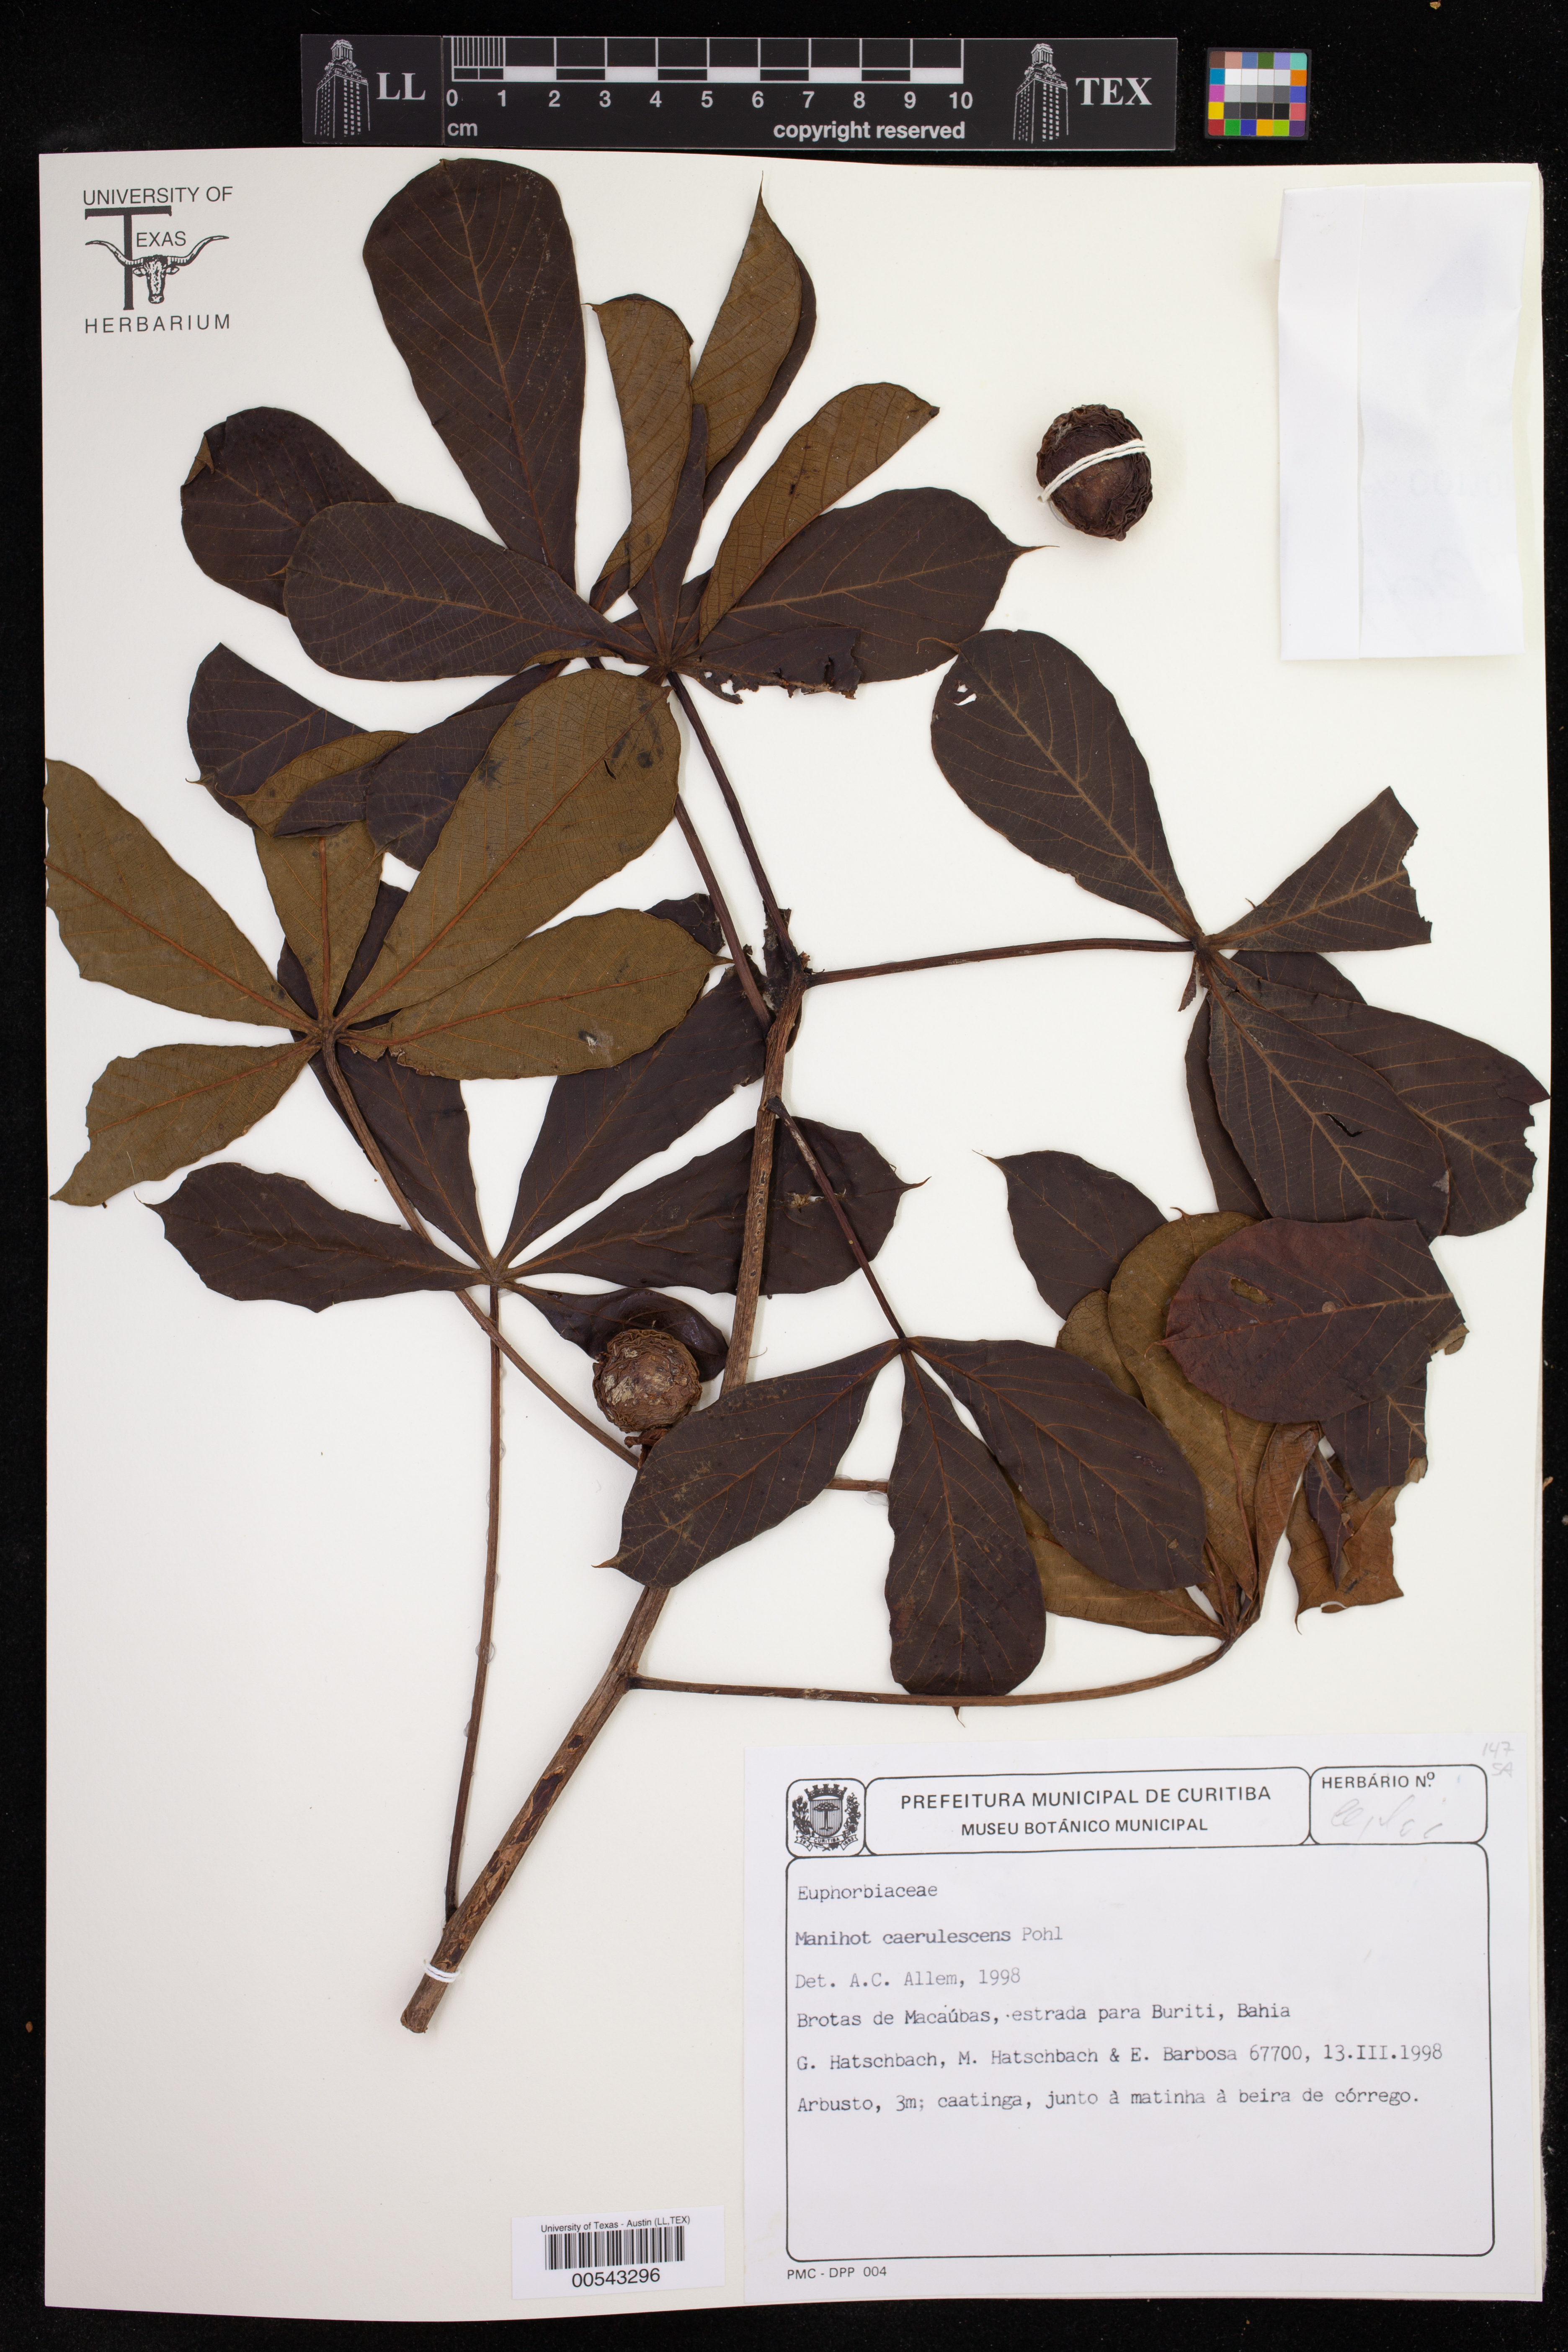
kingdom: Plantae
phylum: Tracheophyta
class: Magnoliopsida
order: Malpighiales
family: Euphorbiaceae
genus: Manihot
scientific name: Manihot caerulescens
